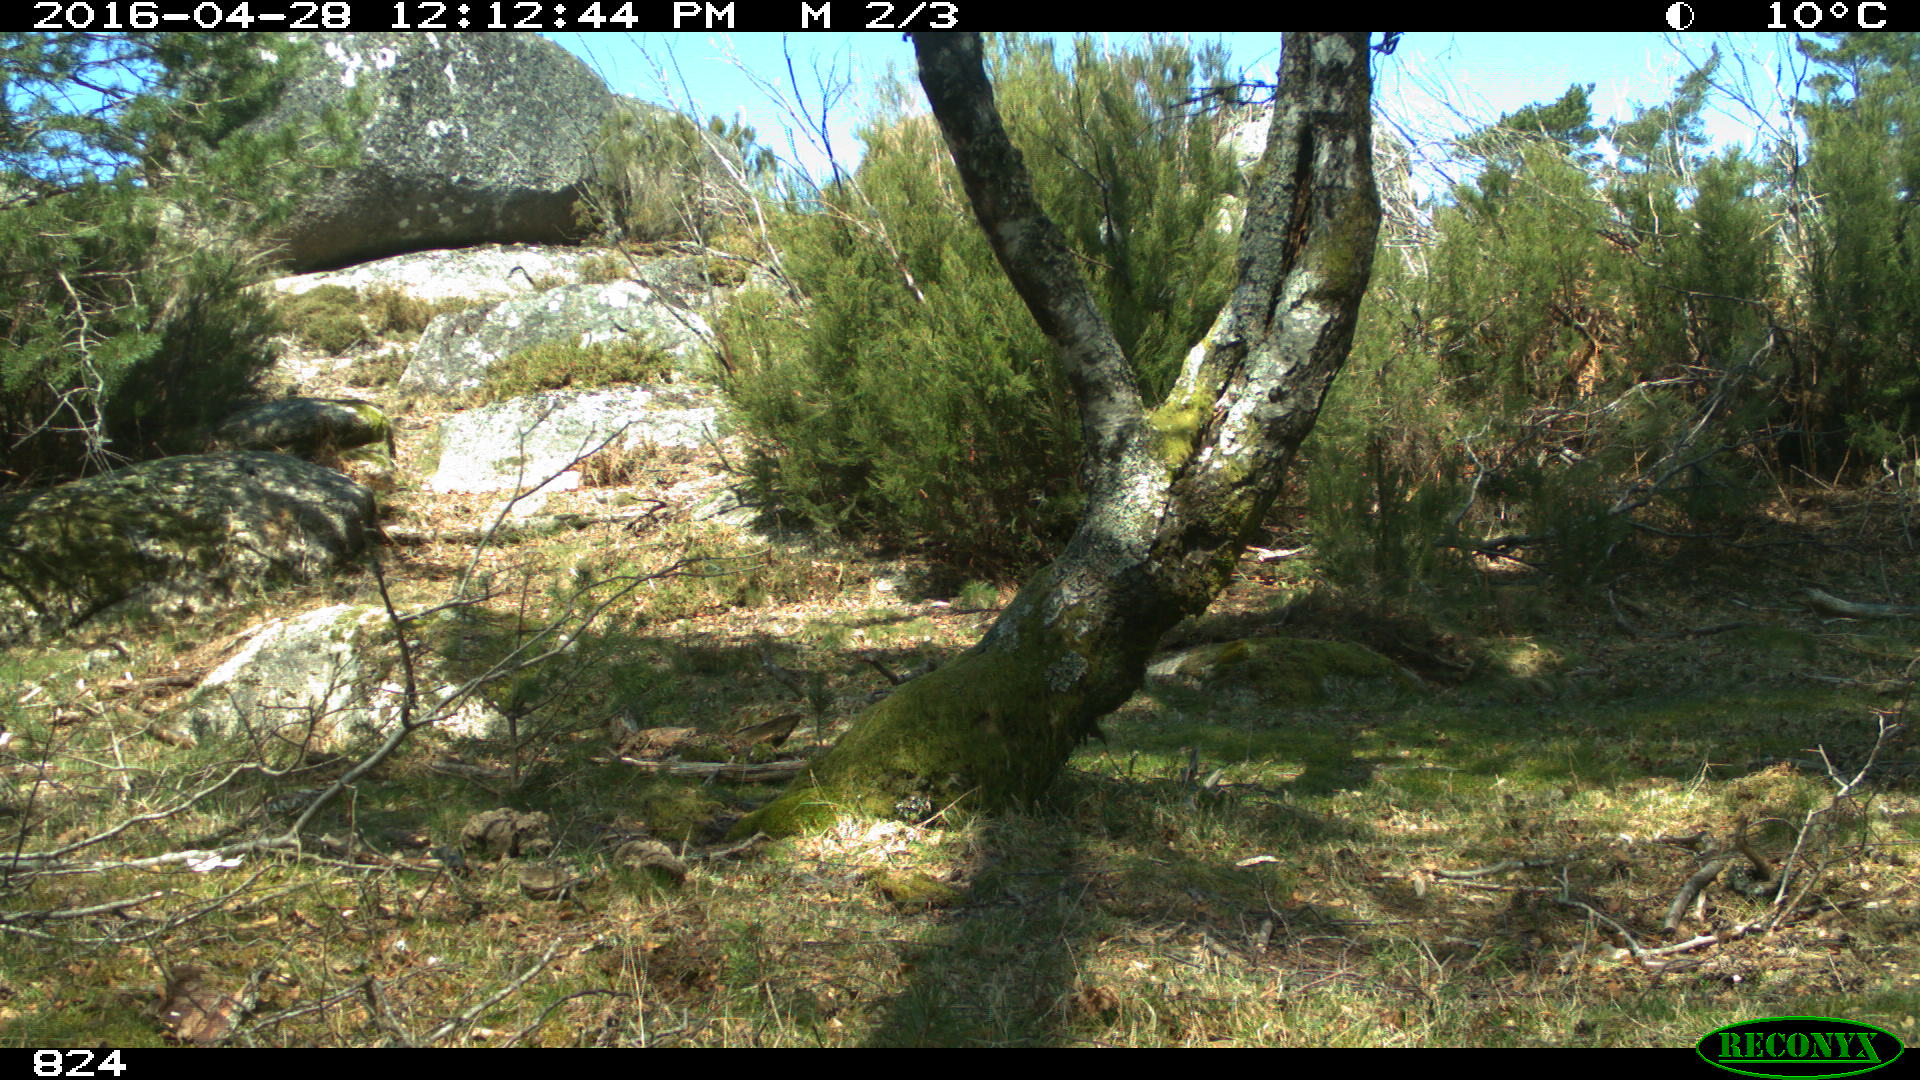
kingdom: Animalia
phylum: Chordata
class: Mammalia
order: Perissodactyla
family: Equidae
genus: Equus
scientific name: Equus caballus
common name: Horse
